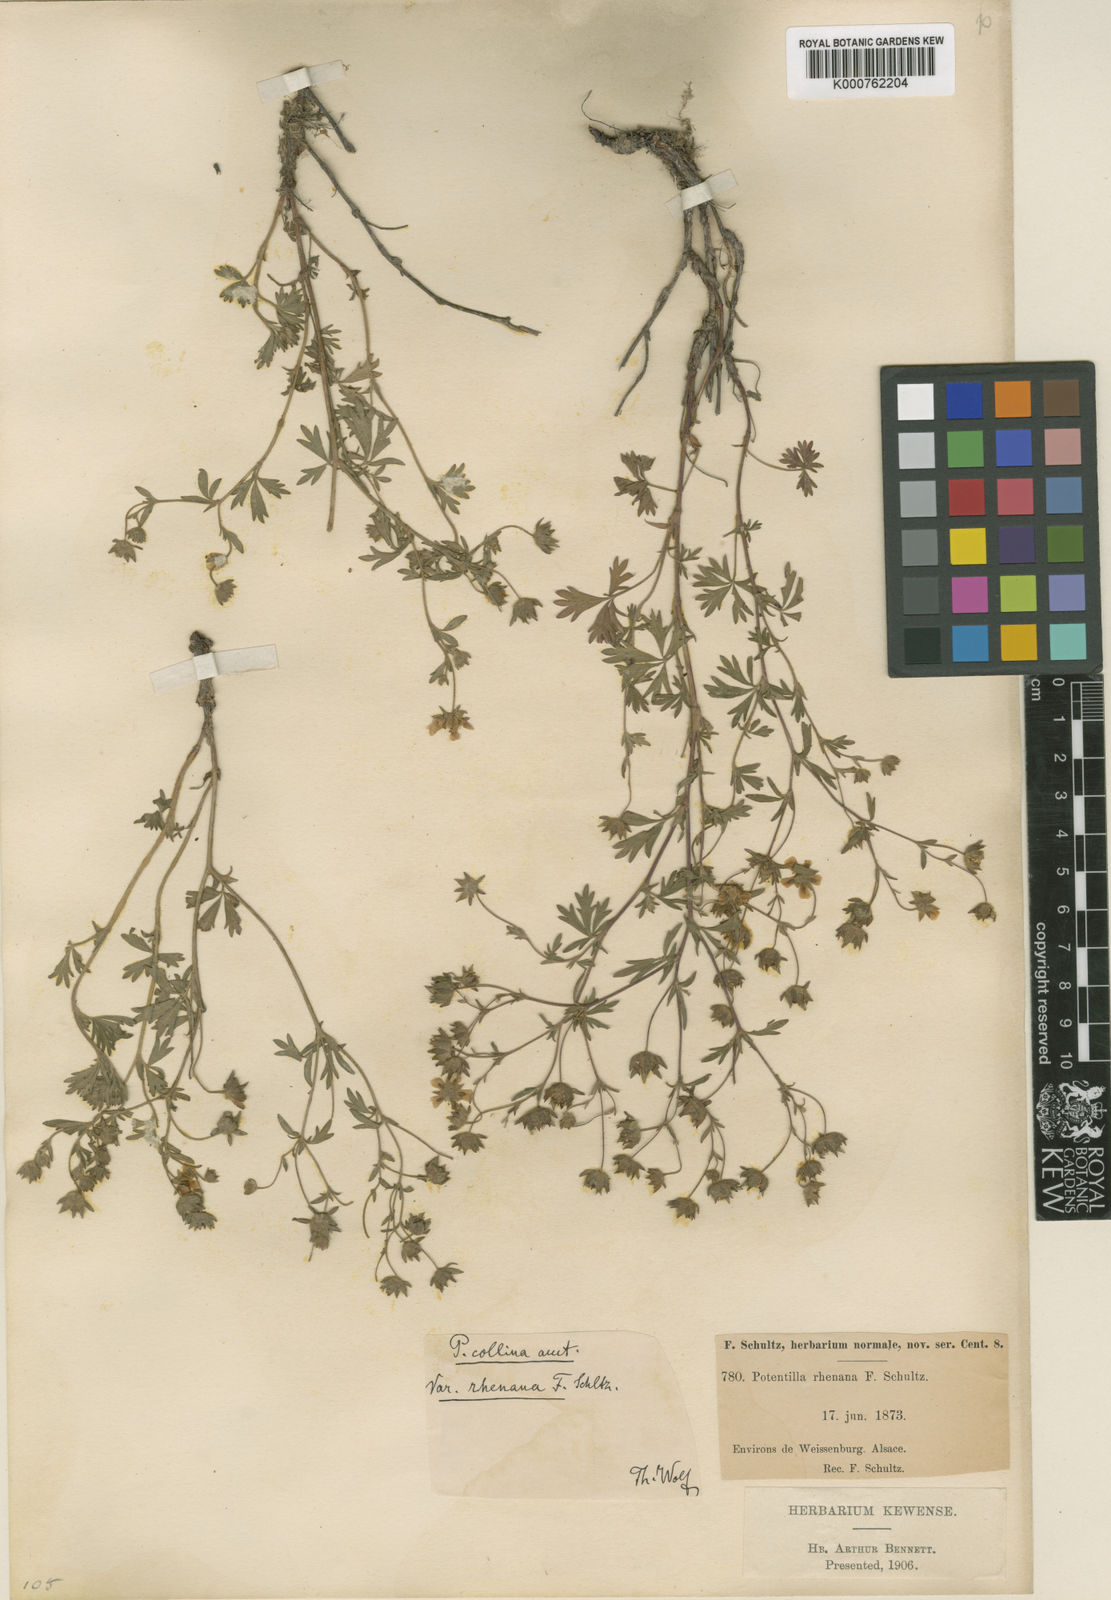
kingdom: Plantae
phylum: Tracheophyta
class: Magnoliopsida
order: Rosales
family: Rosaceae
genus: Potentilla
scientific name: Potentilla
